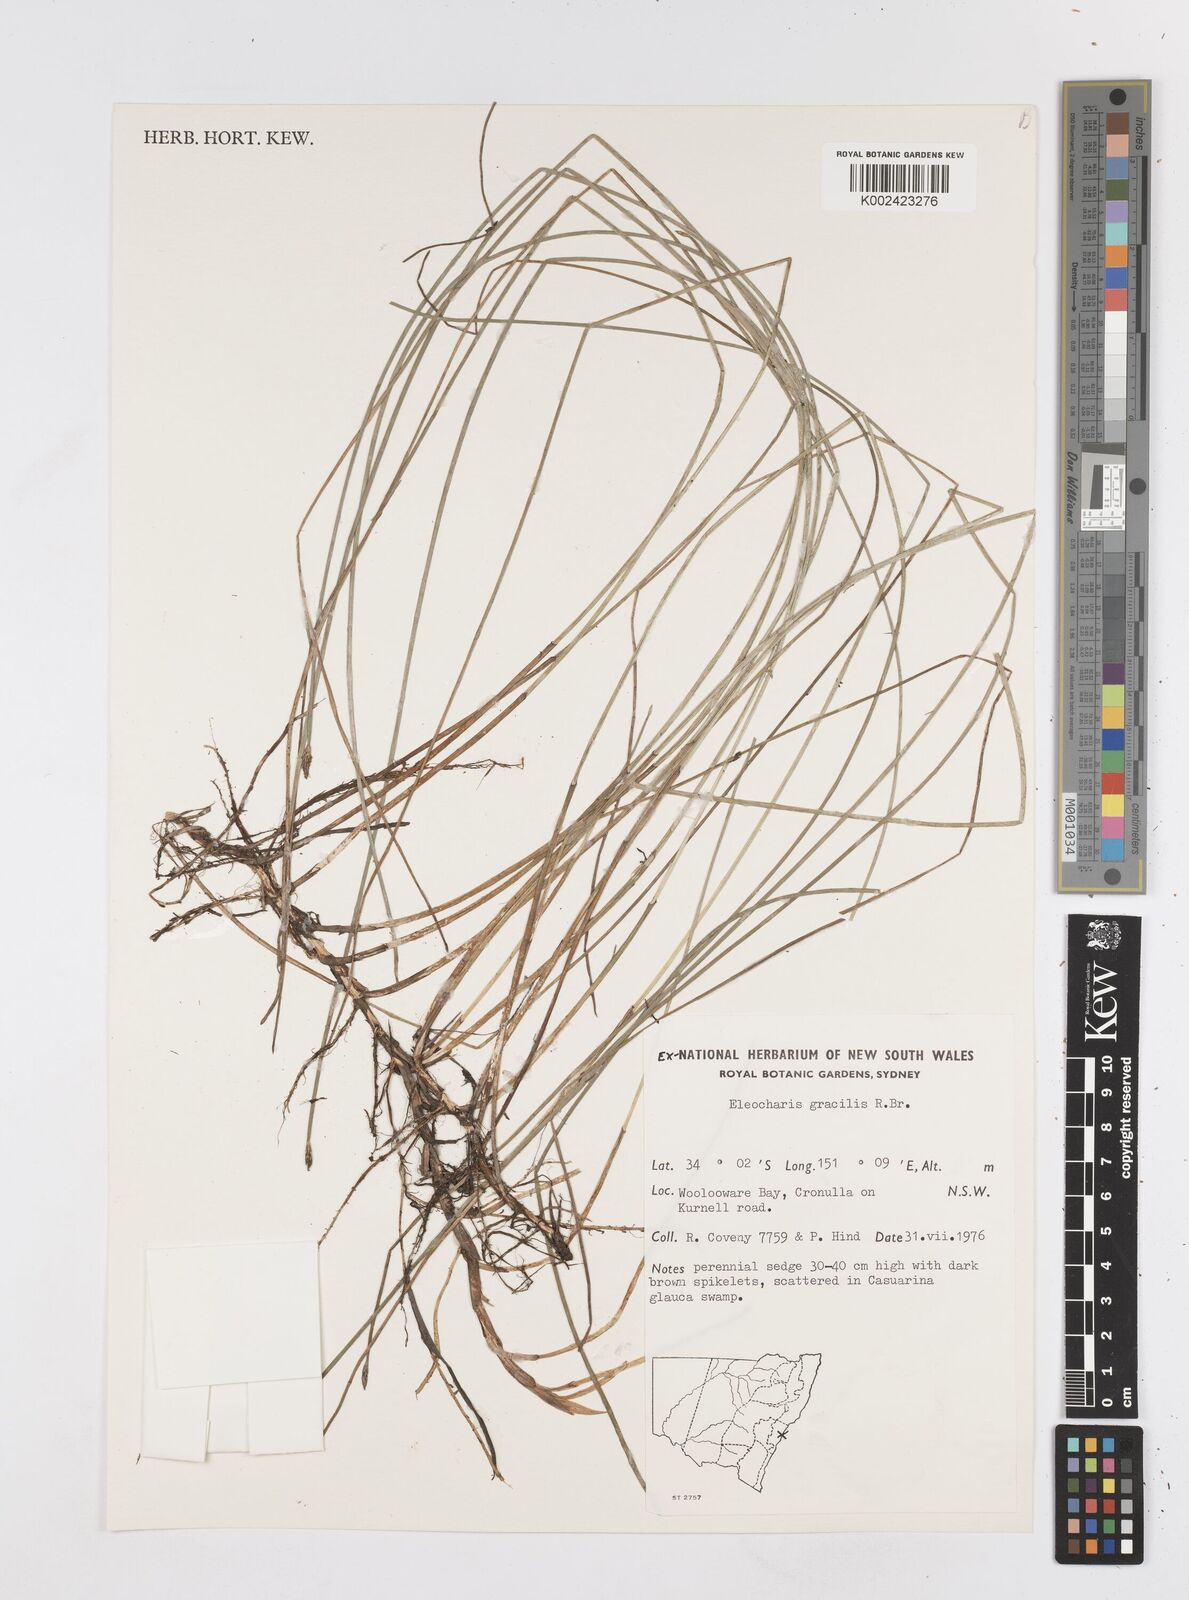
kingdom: Plantae
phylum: Tracheophyta
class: Liliopsida
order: Poales
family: Cyperaceae
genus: Eleocharis
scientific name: Eleocharis multicaulis
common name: Many-stalked spike-rush
